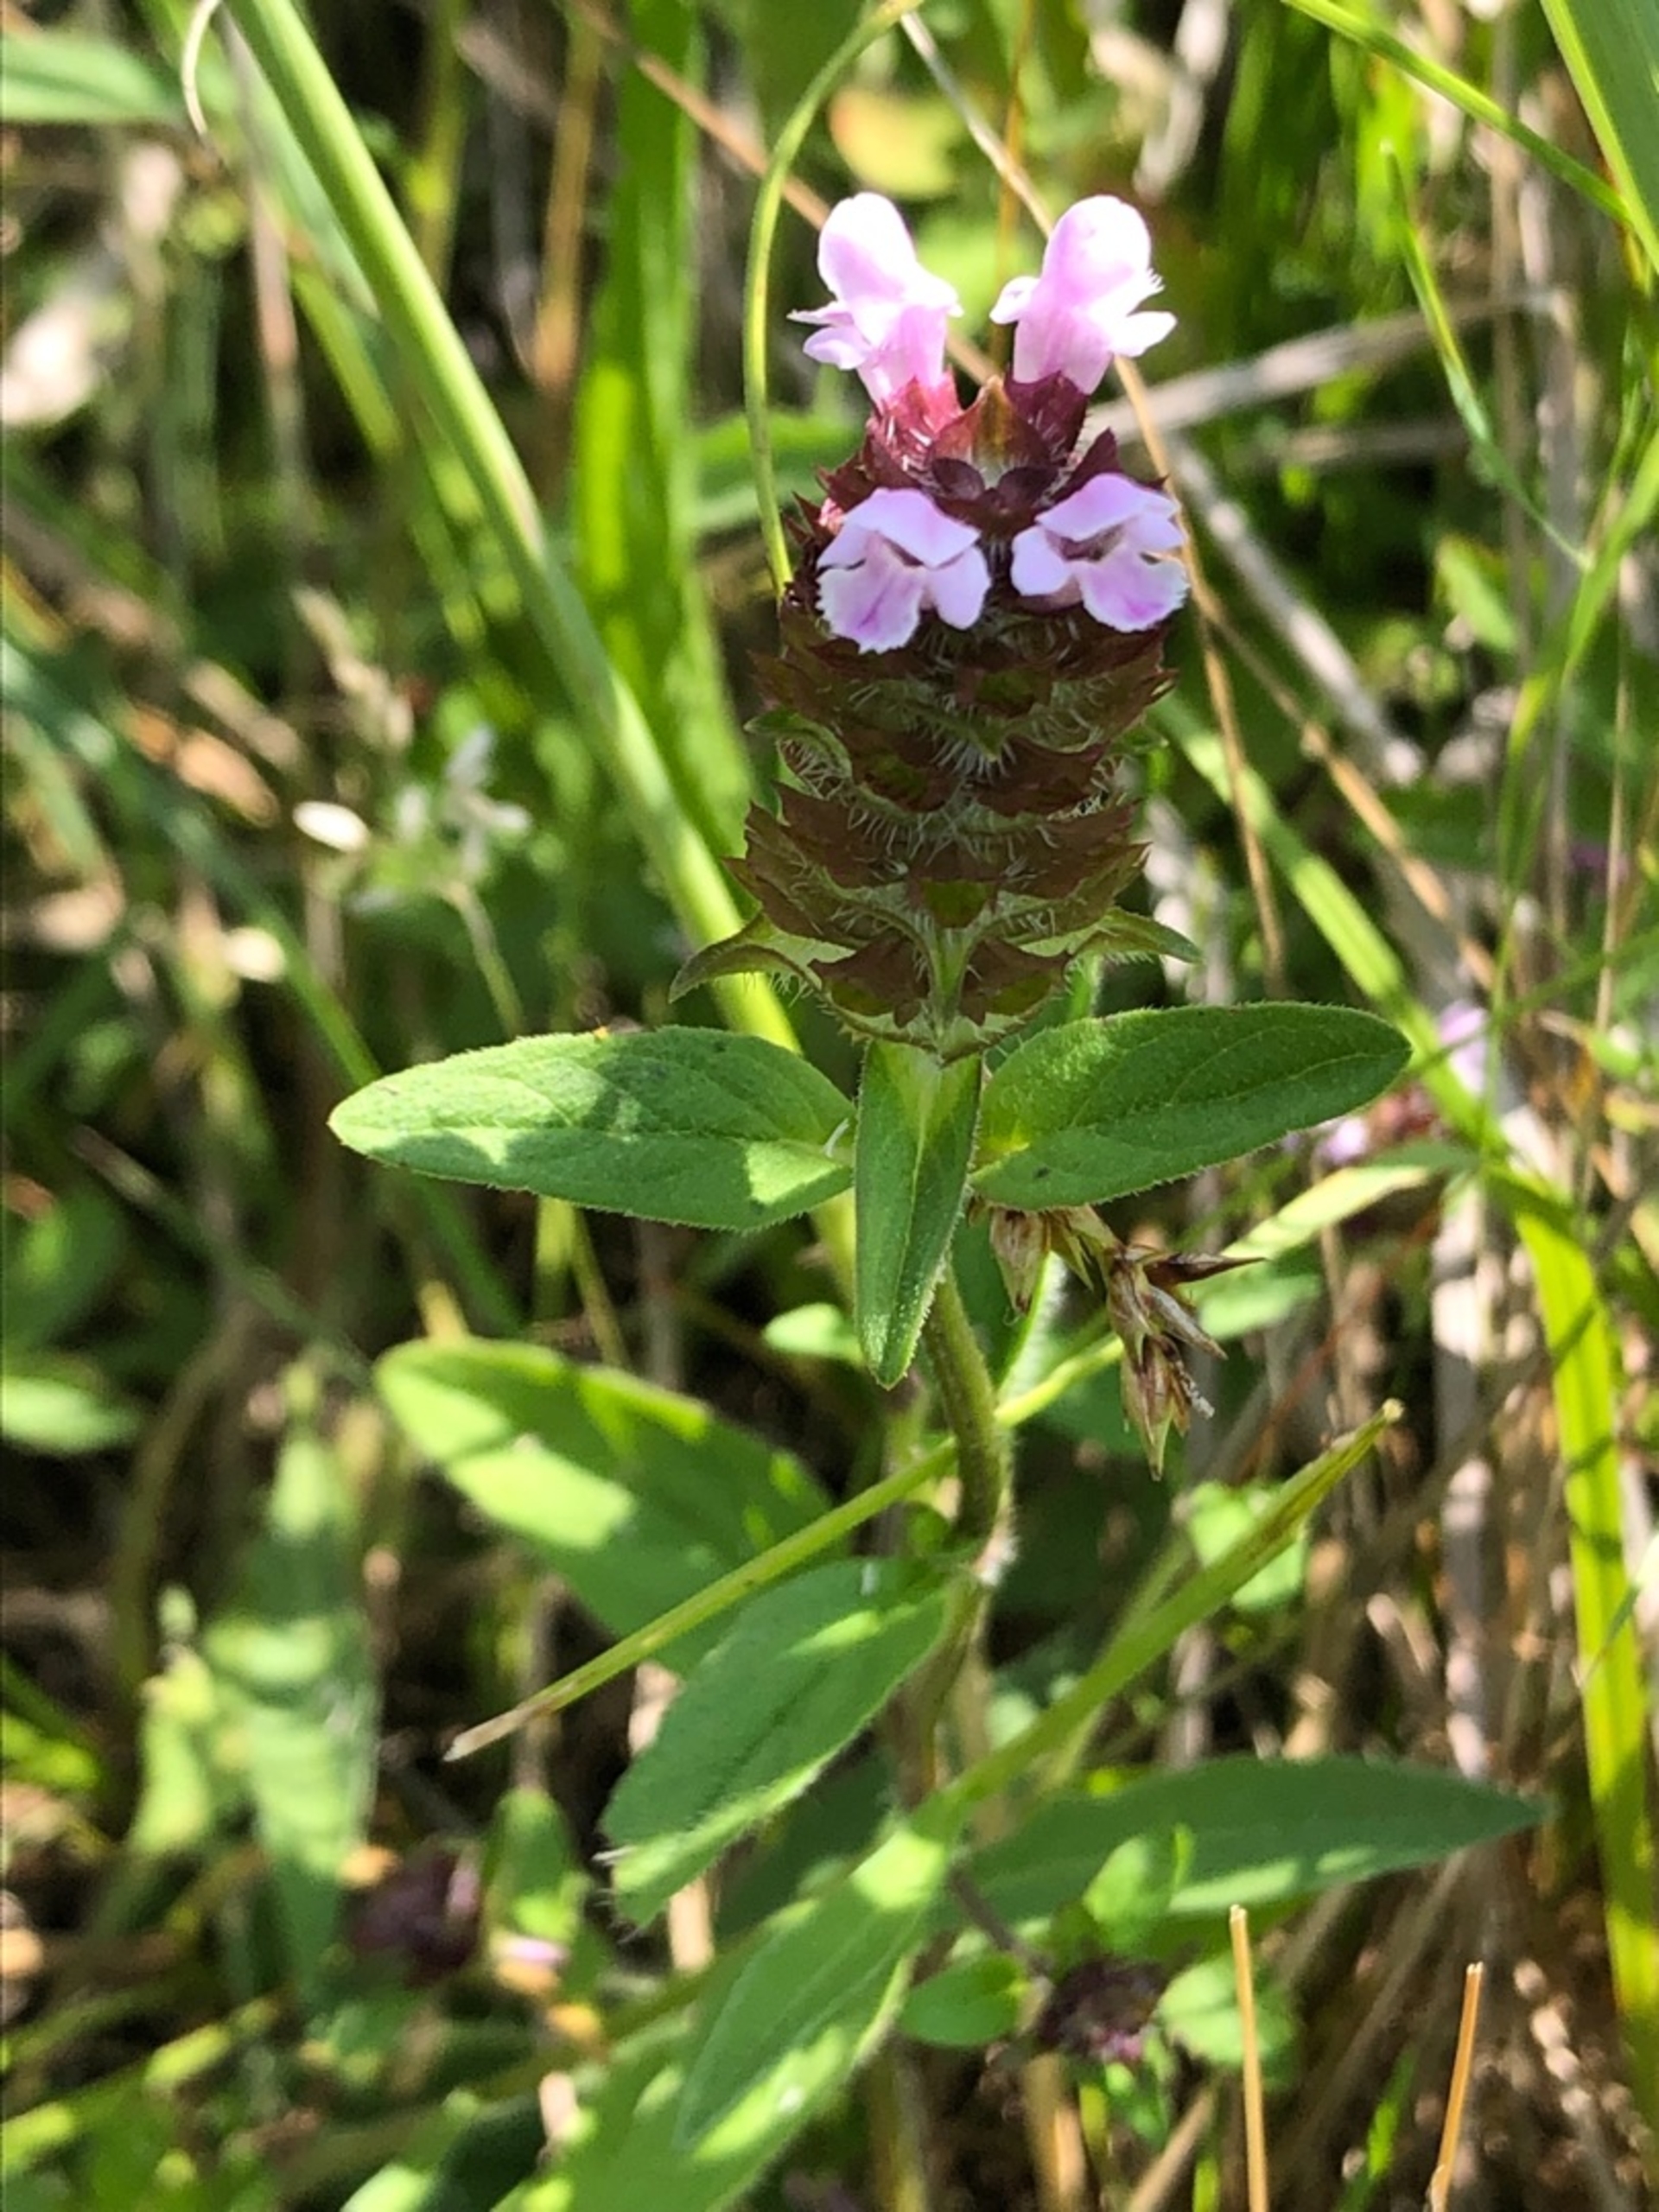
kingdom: Plantae
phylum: Tracheophyta
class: Magnoliopsida
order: Lamiales
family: Lamiaceae
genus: Prunella
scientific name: Prunella vulgaris
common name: Almindelig brunelle
